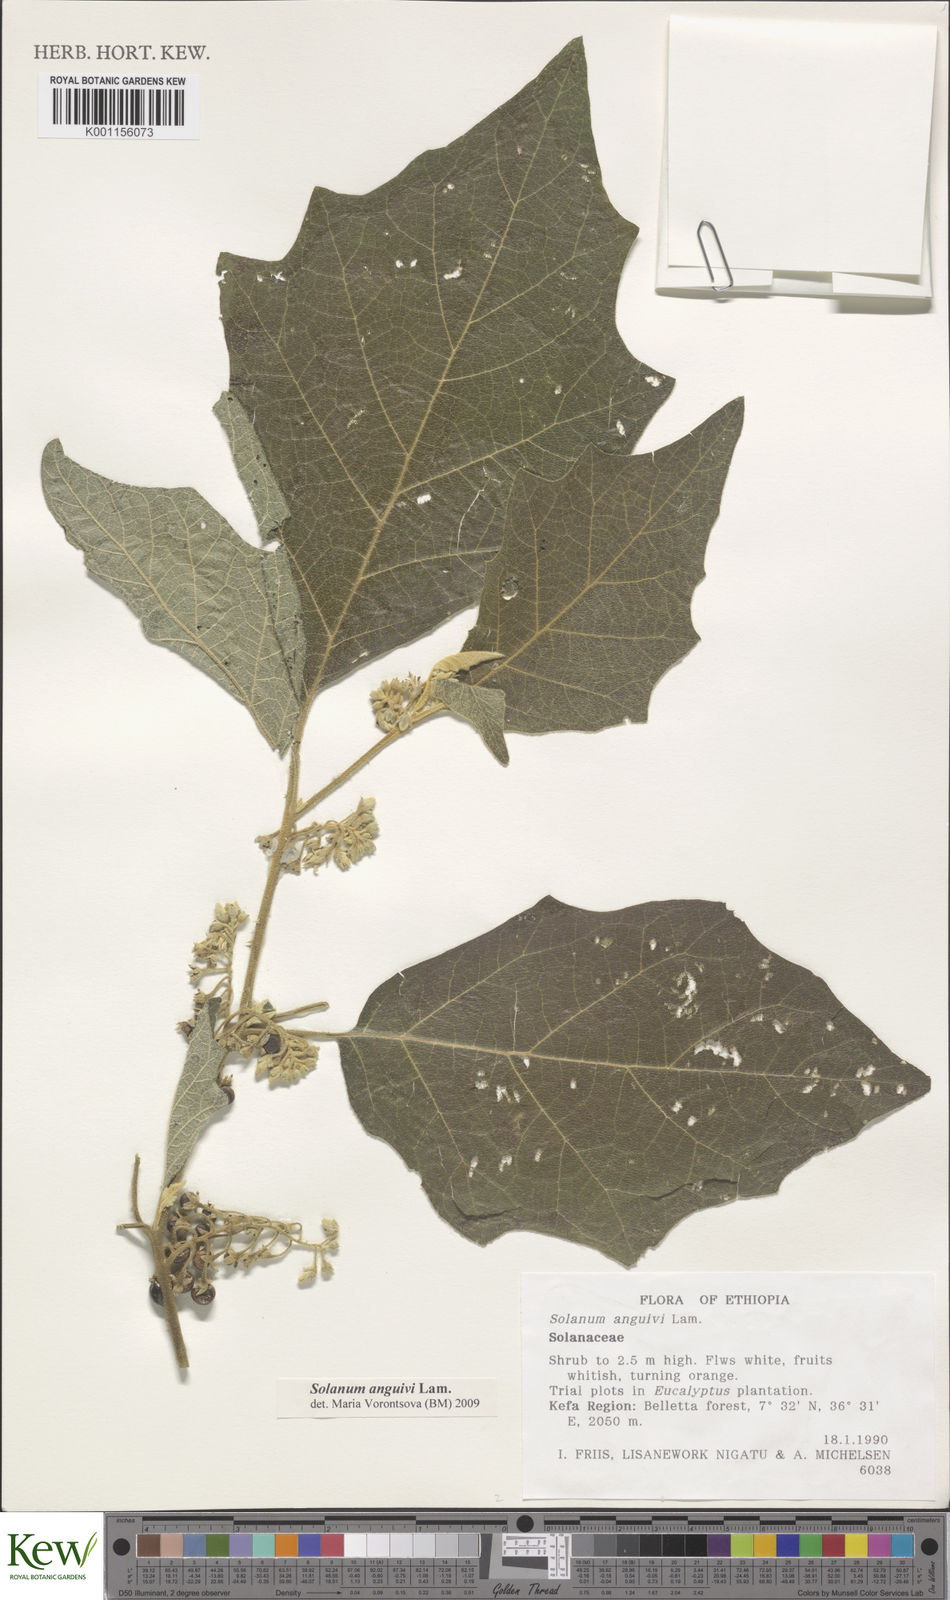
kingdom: Plantae
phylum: Tracheophyta
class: Magnoliopsida
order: Solanales
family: Solanaceae
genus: Solanum
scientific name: Solanum anguivi
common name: Forest bitterberry
